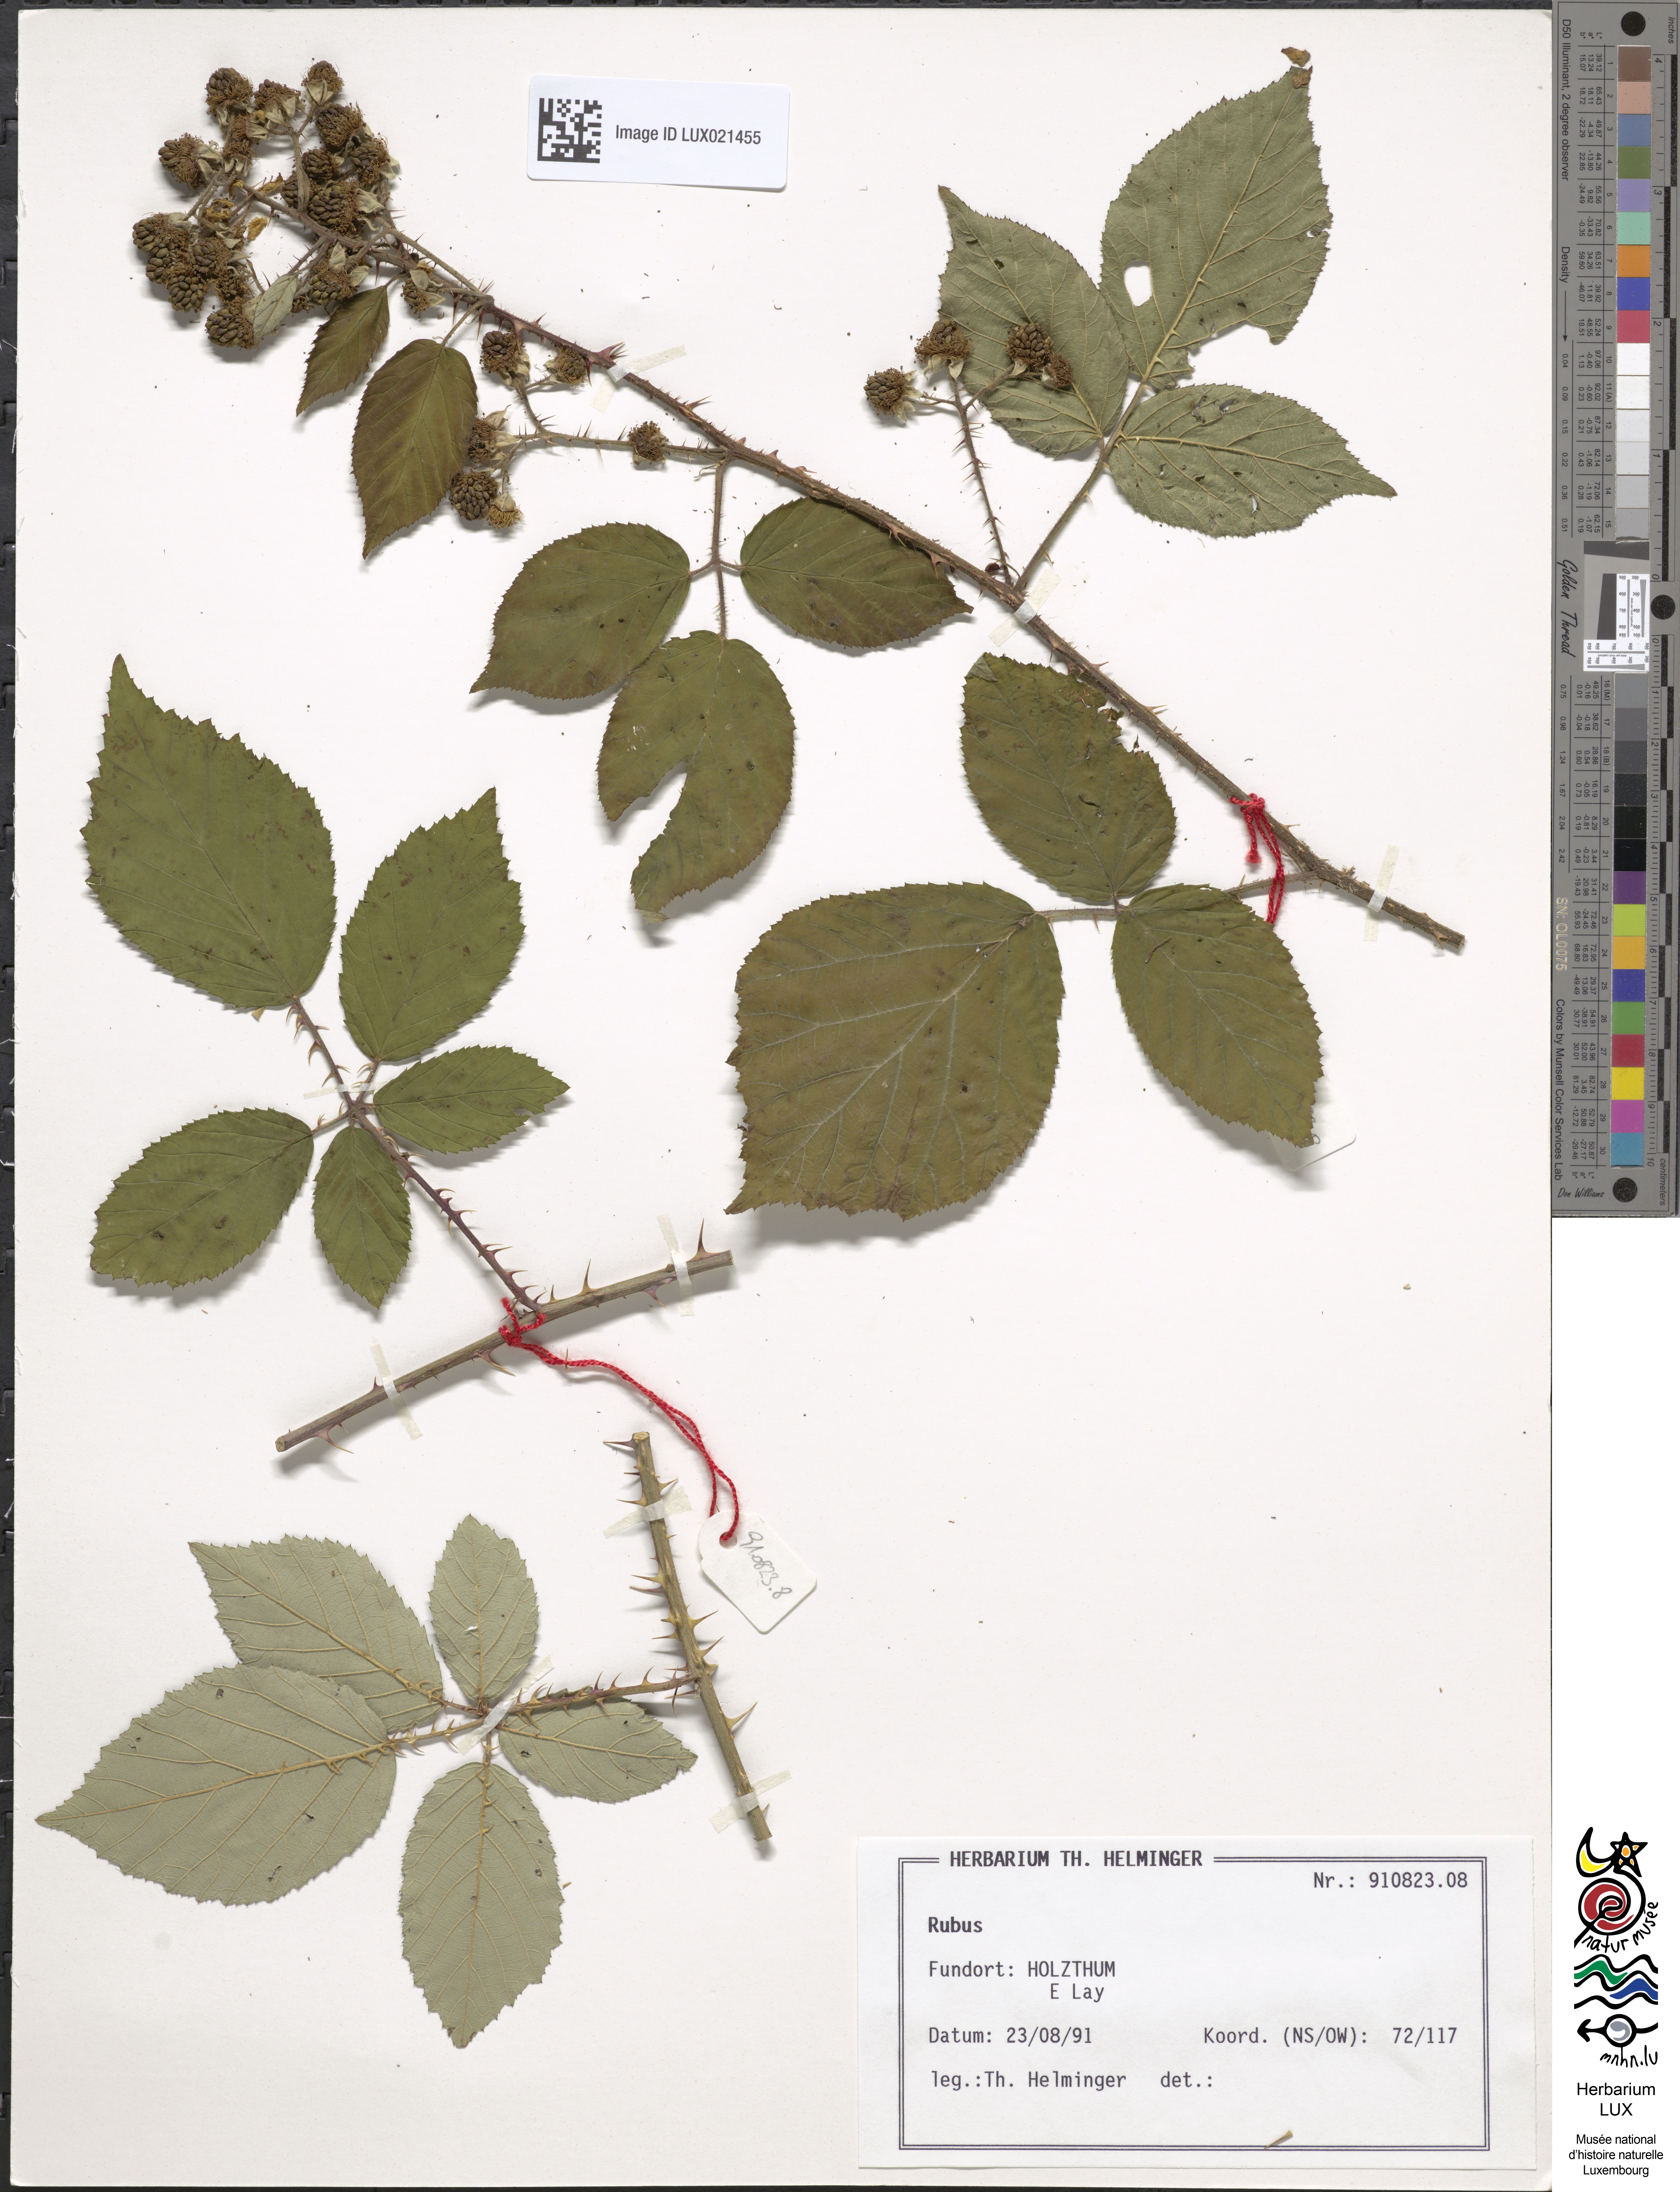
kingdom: Plantae
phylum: Tracheophyta
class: Magnoliopsida
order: Rosales
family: Rosaceae
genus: Rubus
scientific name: Rubus
